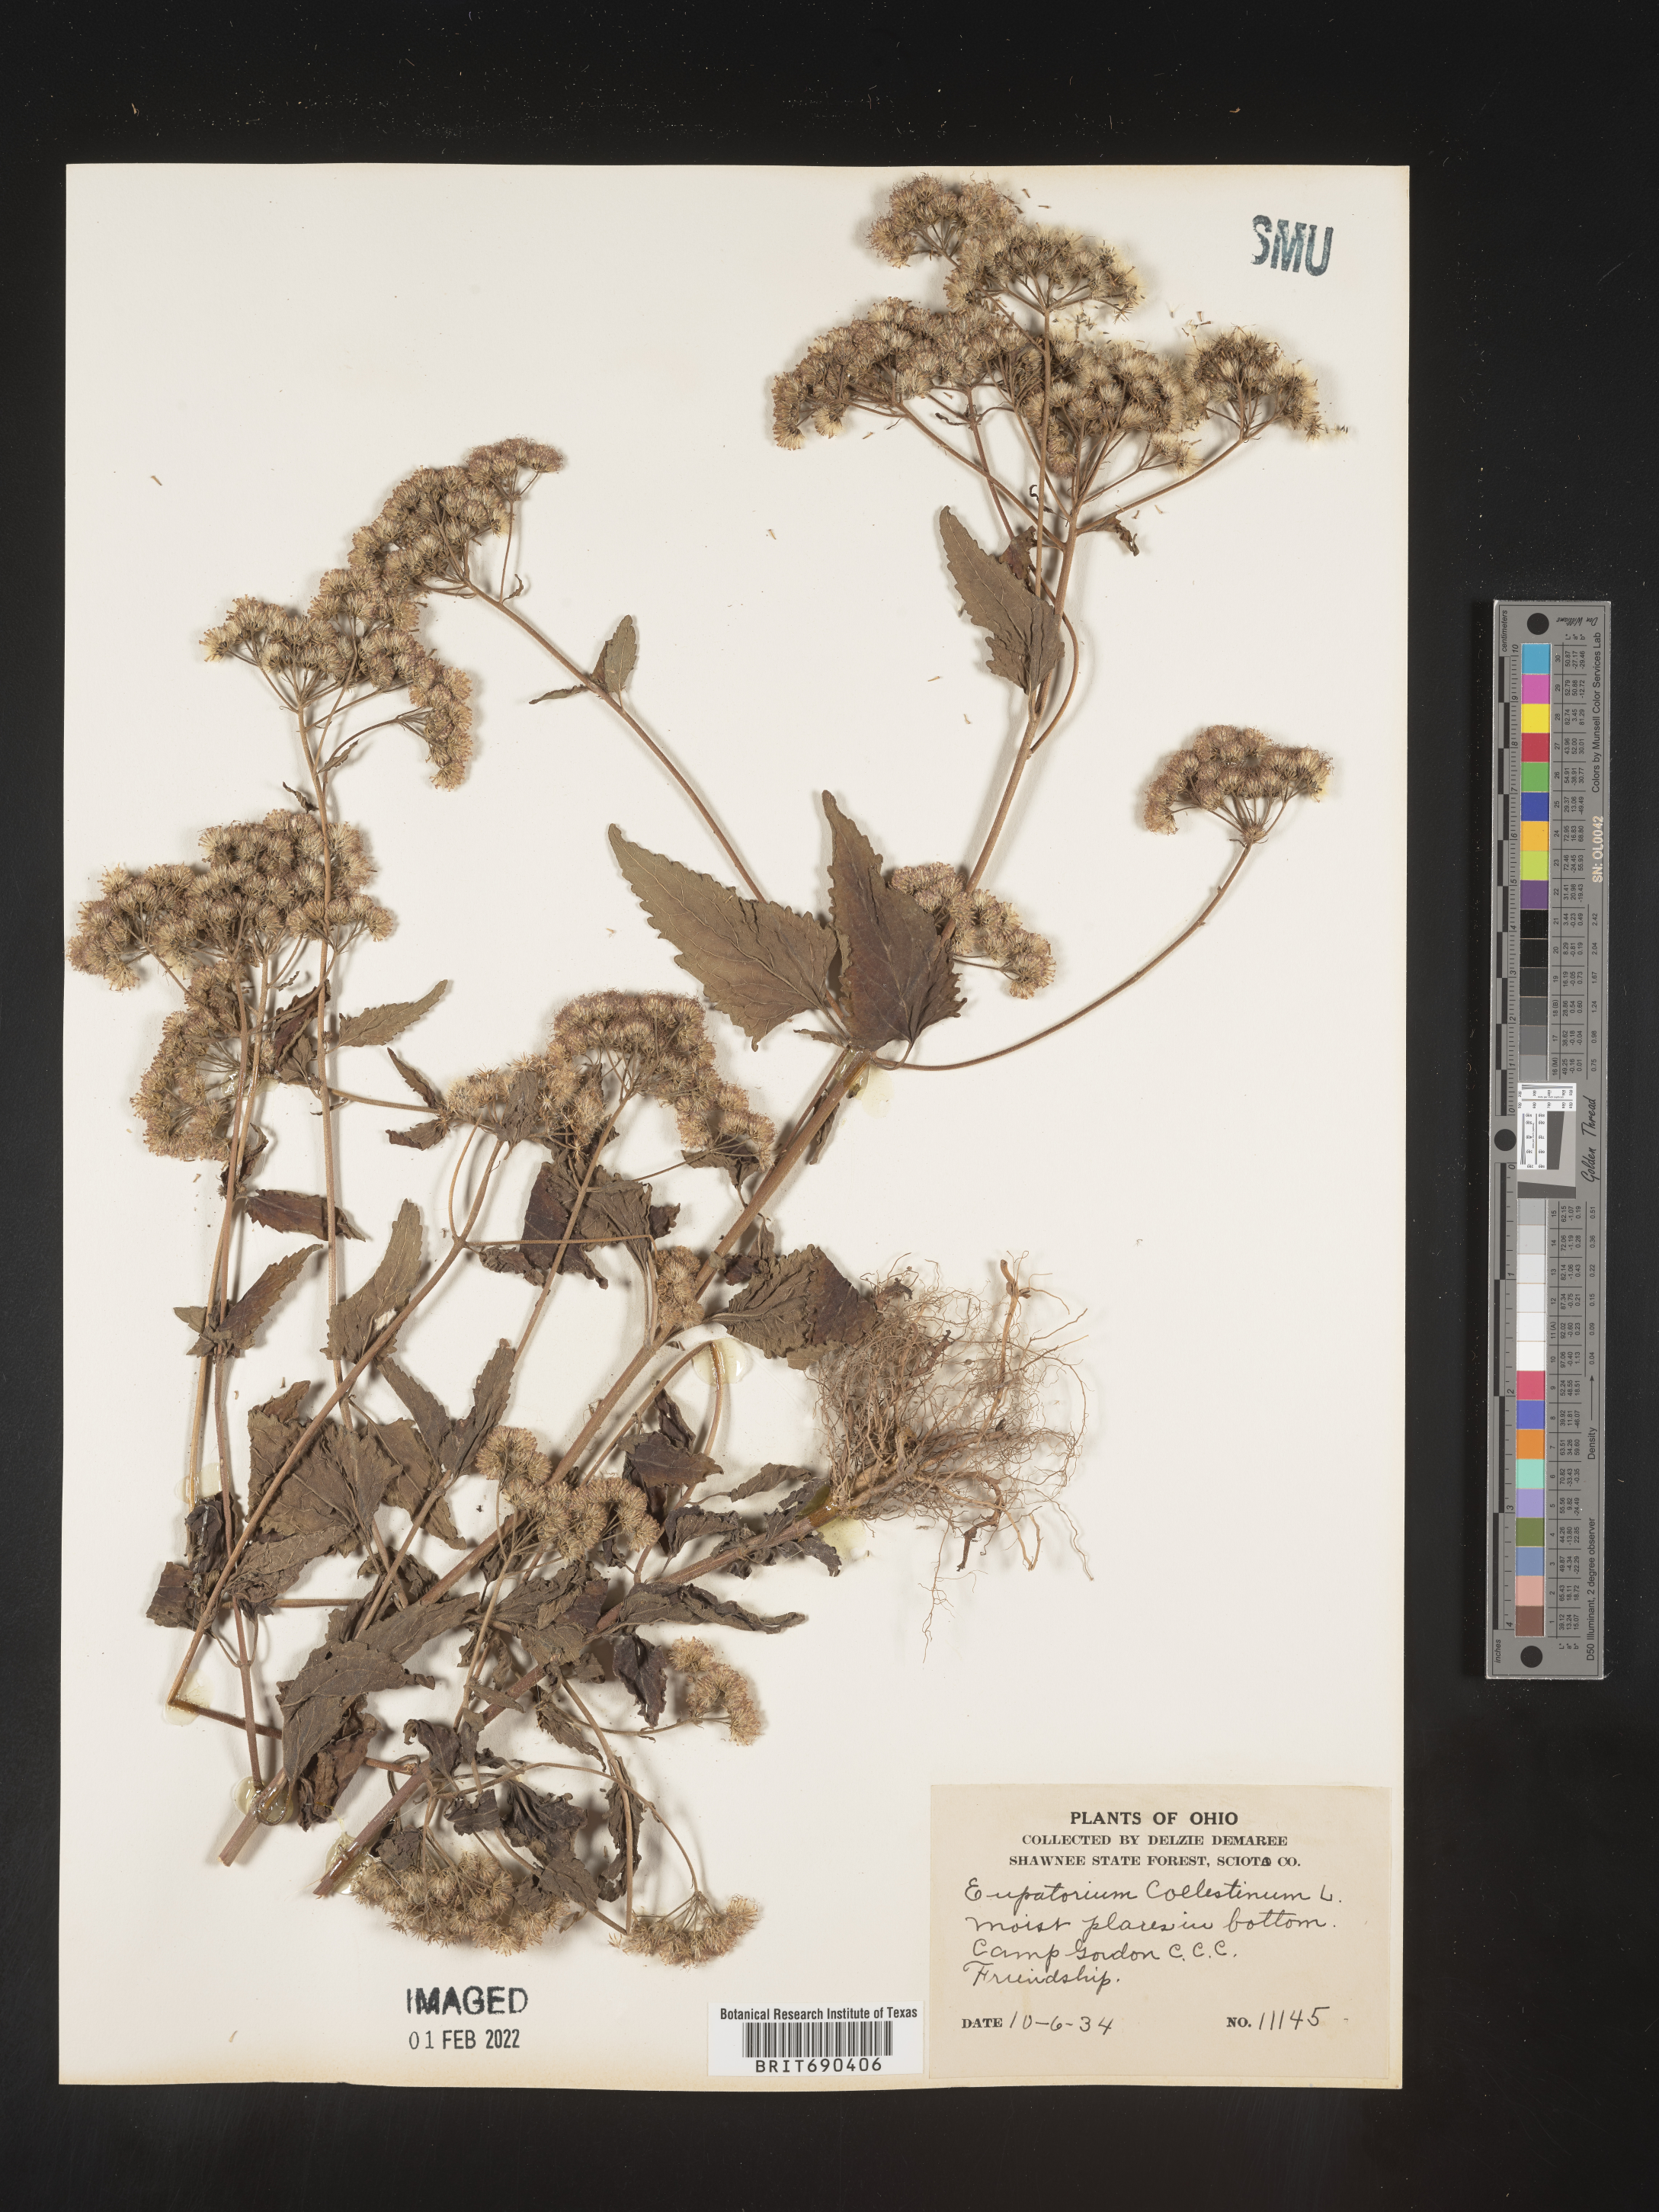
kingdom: Plantae
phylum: Tracheophyta
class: Magnoliopsida
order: Asterales
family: Asteraceae
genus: Conoclinium
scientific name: Conoclinium coelestinum
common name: Blue mistflower
